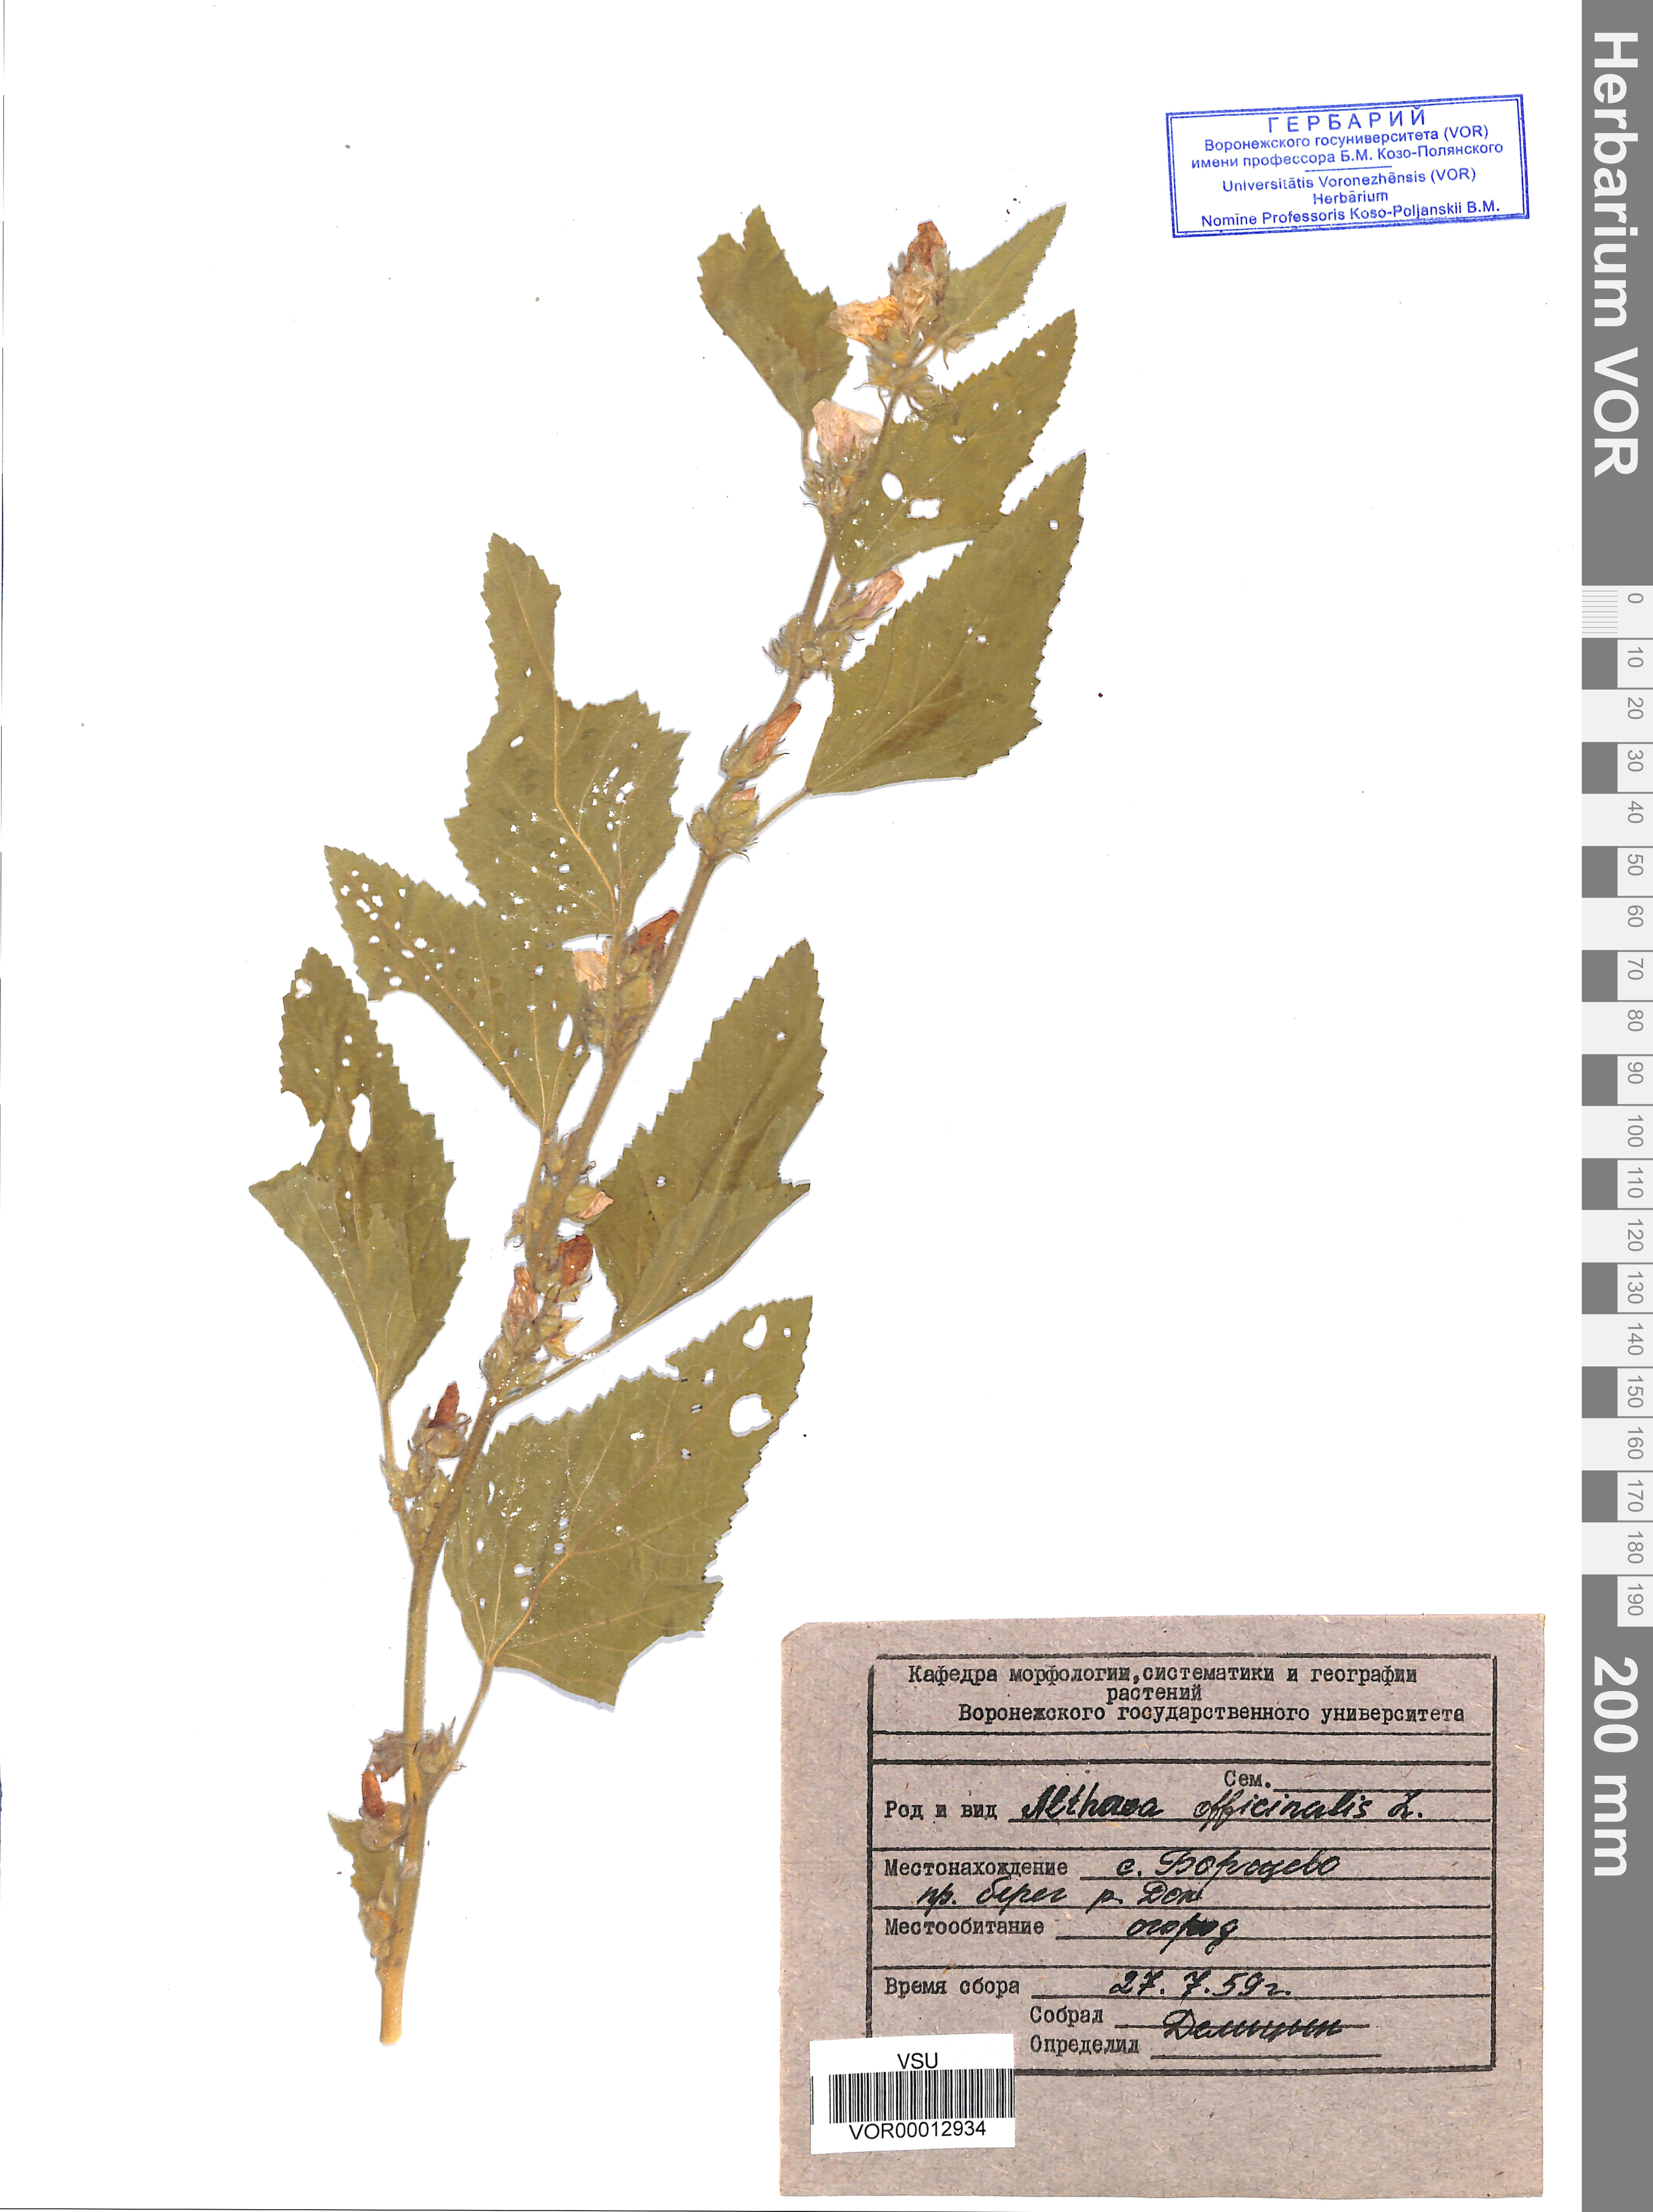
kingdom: Plantae
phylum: Tracheophyta
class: Magnoliopsida
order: Malvales
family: Malvaceae
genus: Althaea
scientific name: Althaea officinalis
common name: Marsh-mallow
